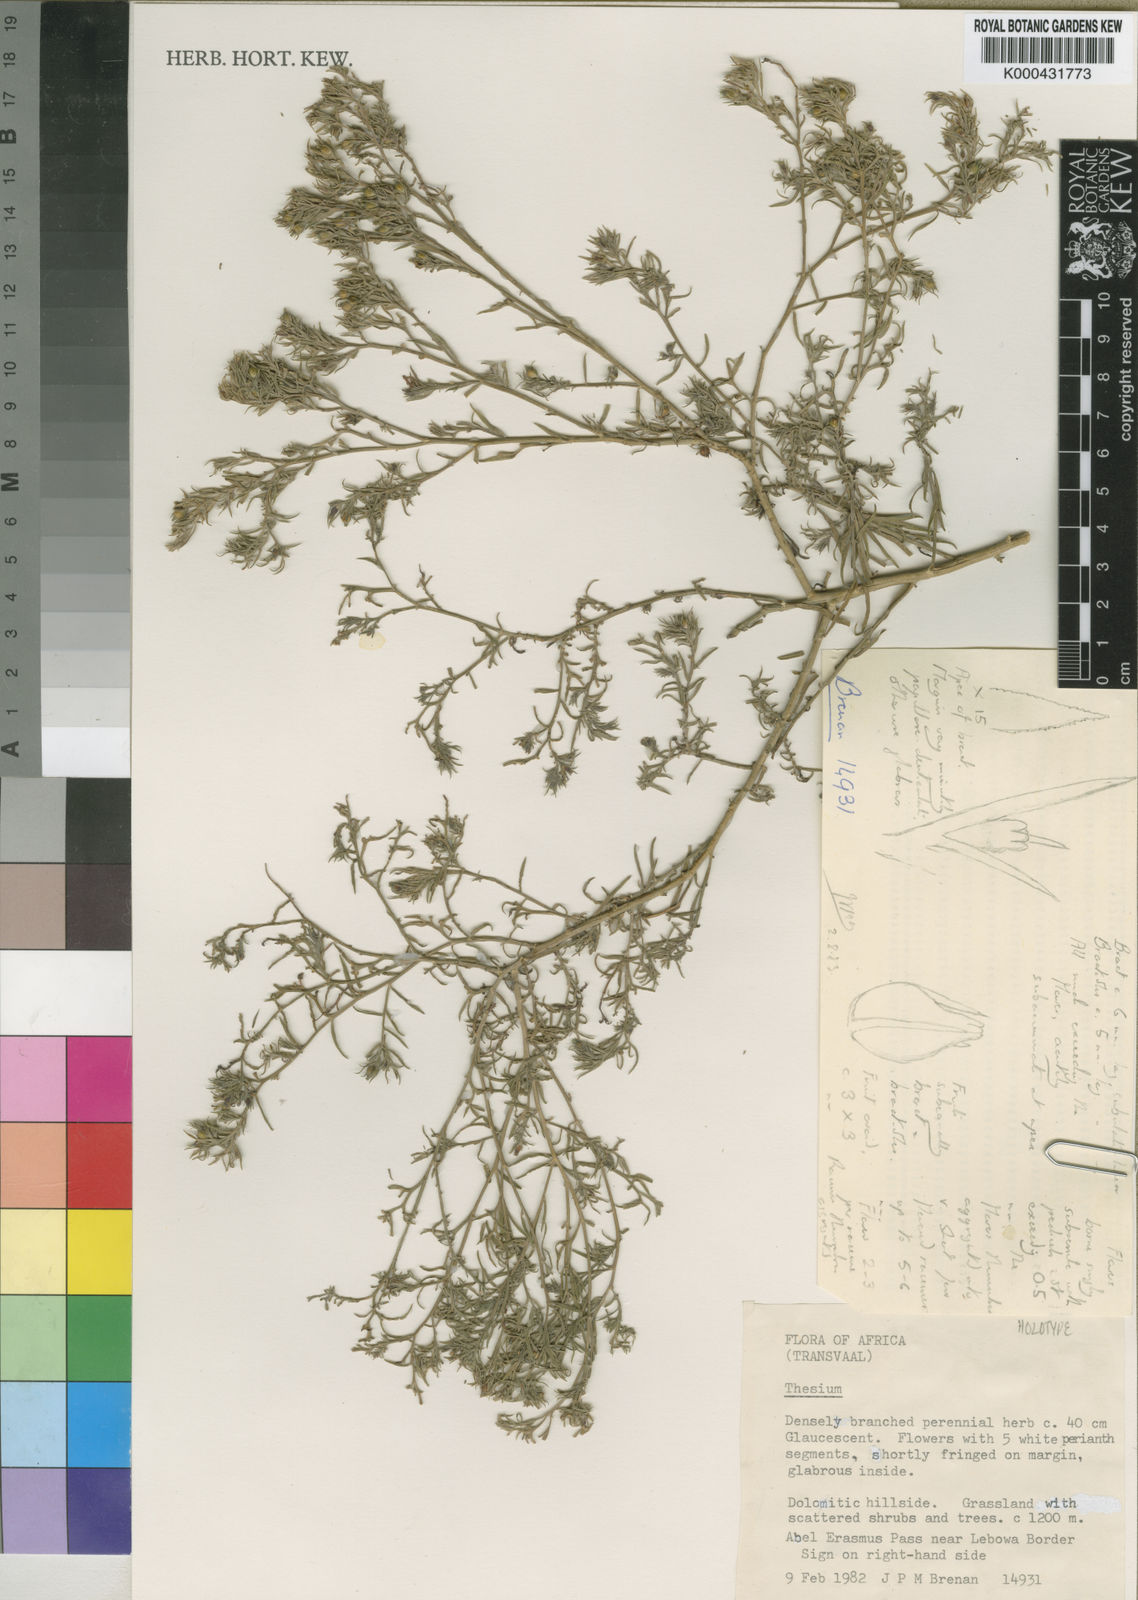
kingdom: Plantae
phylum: Tracheophyta
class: Magnoliopsida
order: Santalales
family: Thesiaceae
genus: Thesium
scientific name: Thesium davidsoniae
